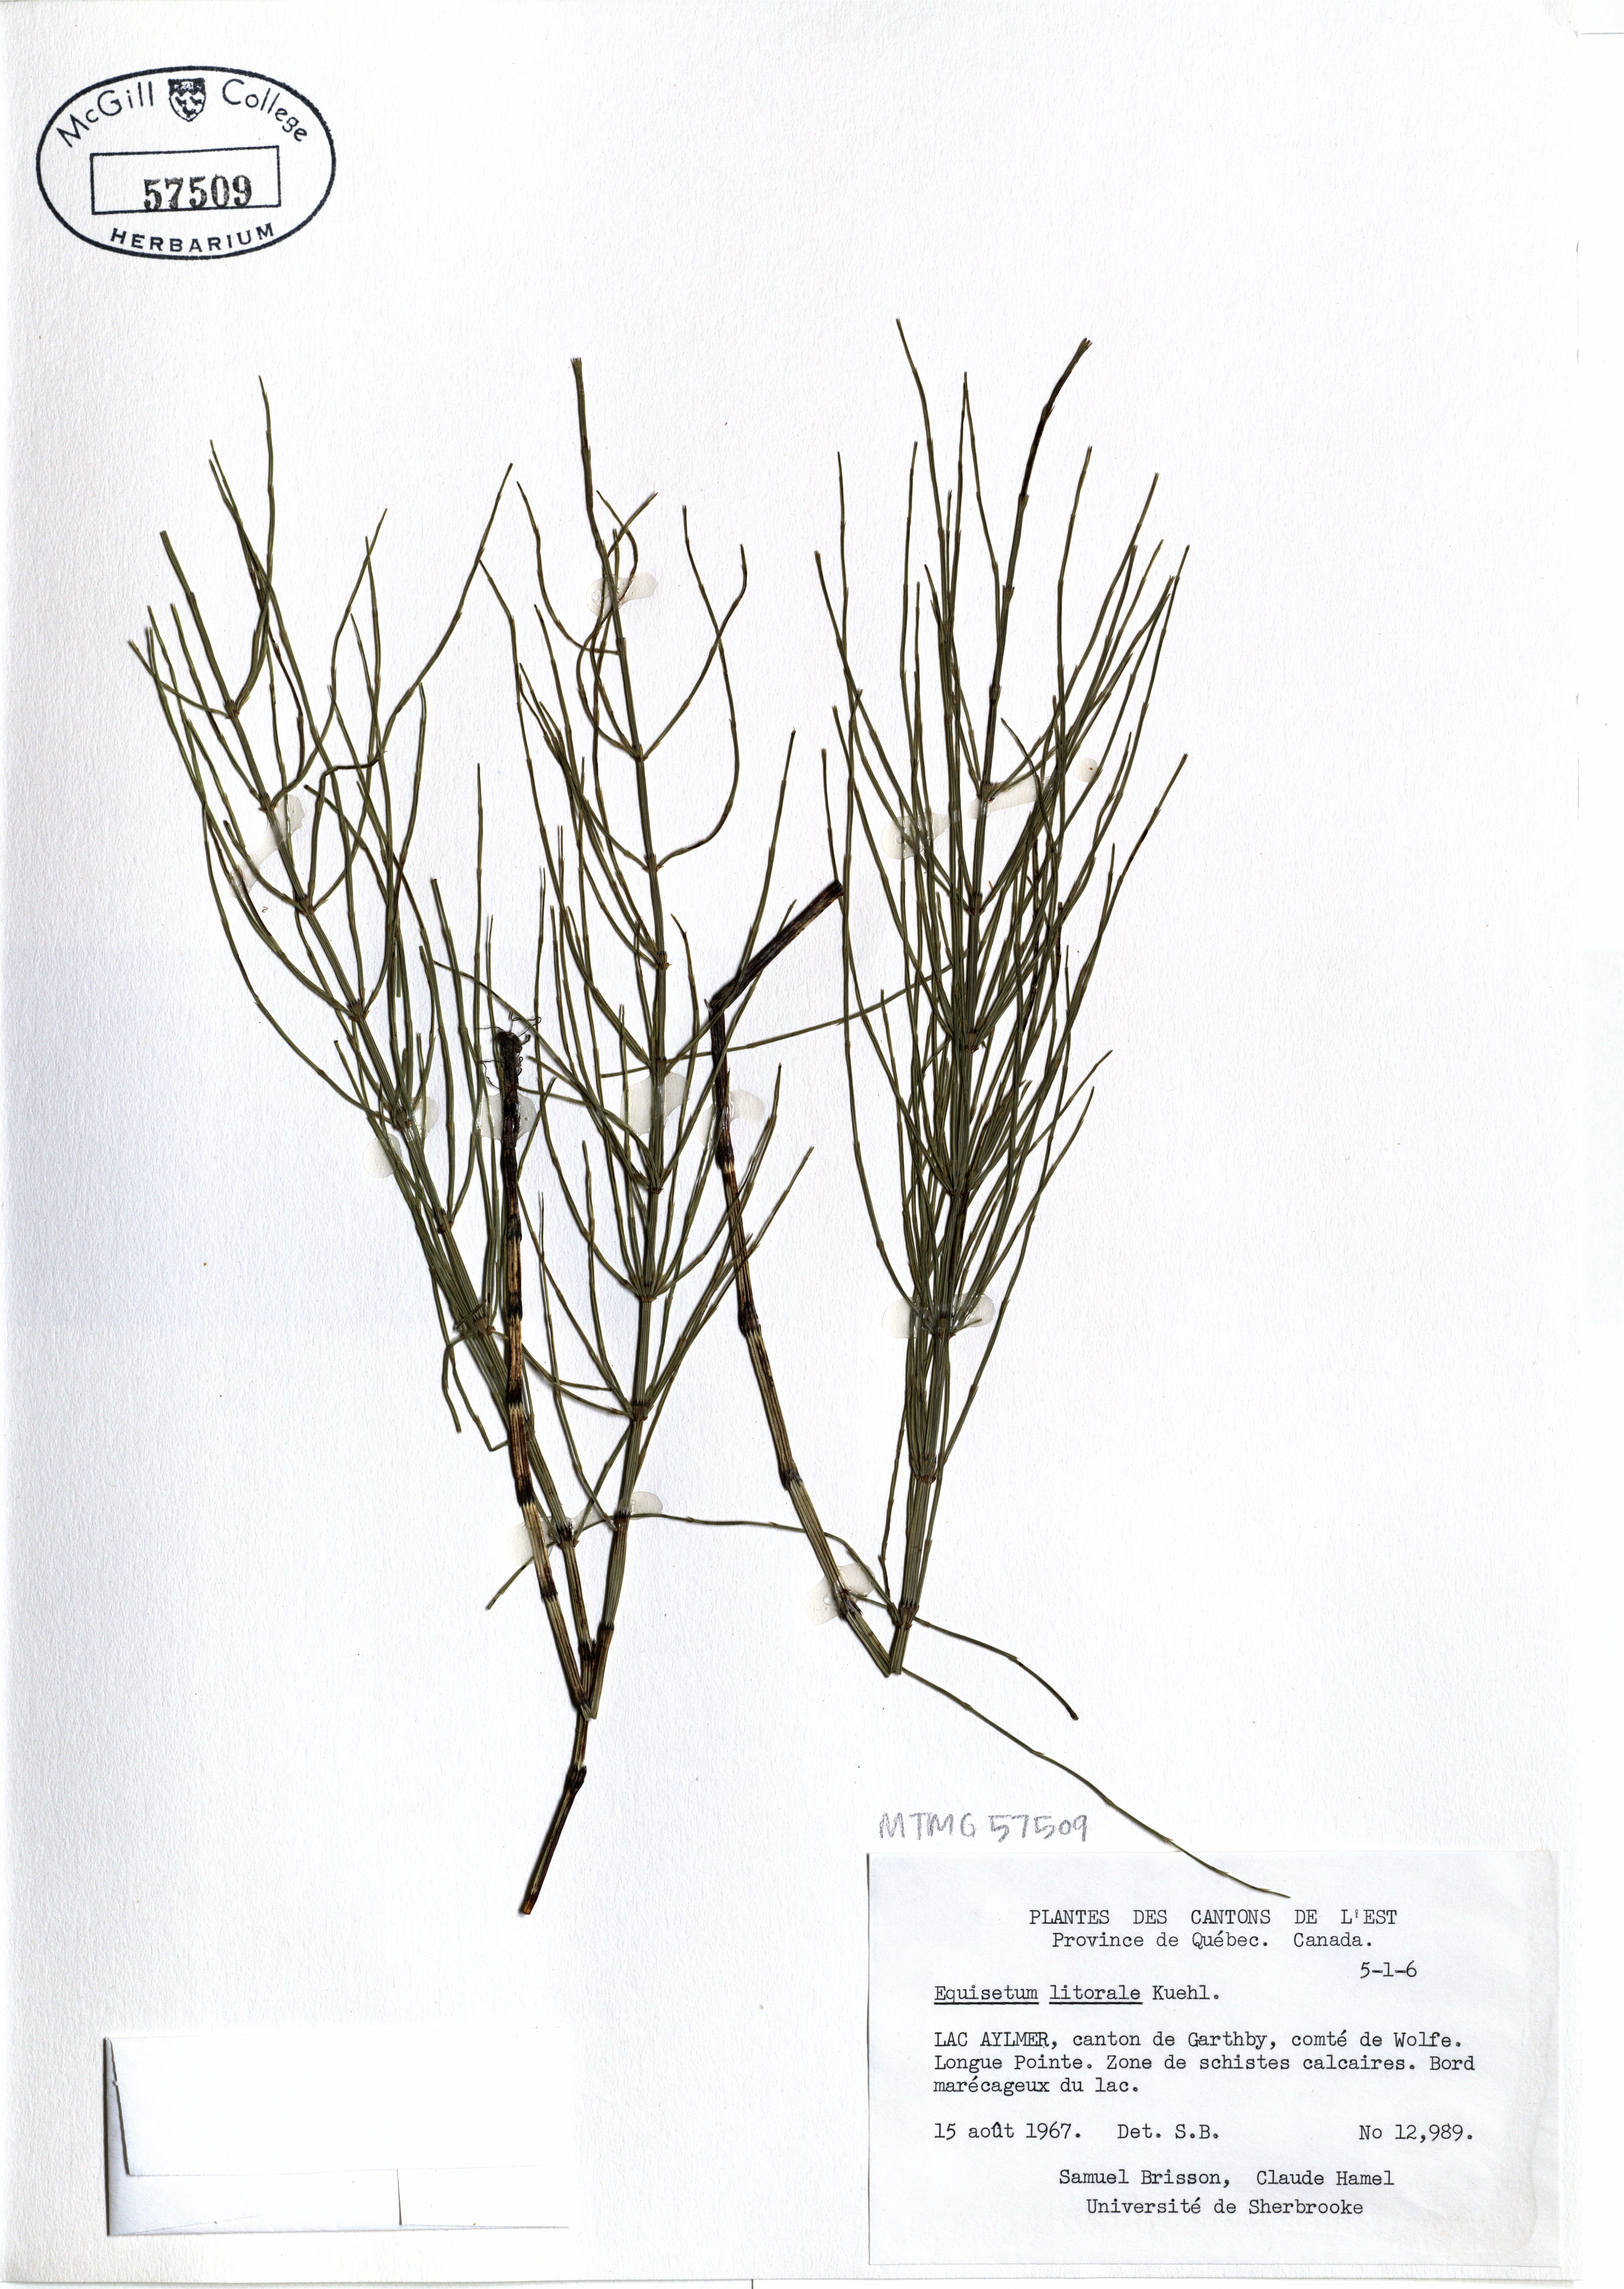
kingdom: Plantae
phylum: Tracheophyta
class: Polypodiopsida
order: Equisetales
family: Equisetaceae
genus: Equisetum
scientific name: Equisetum litorale
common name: Littoral horsetail
